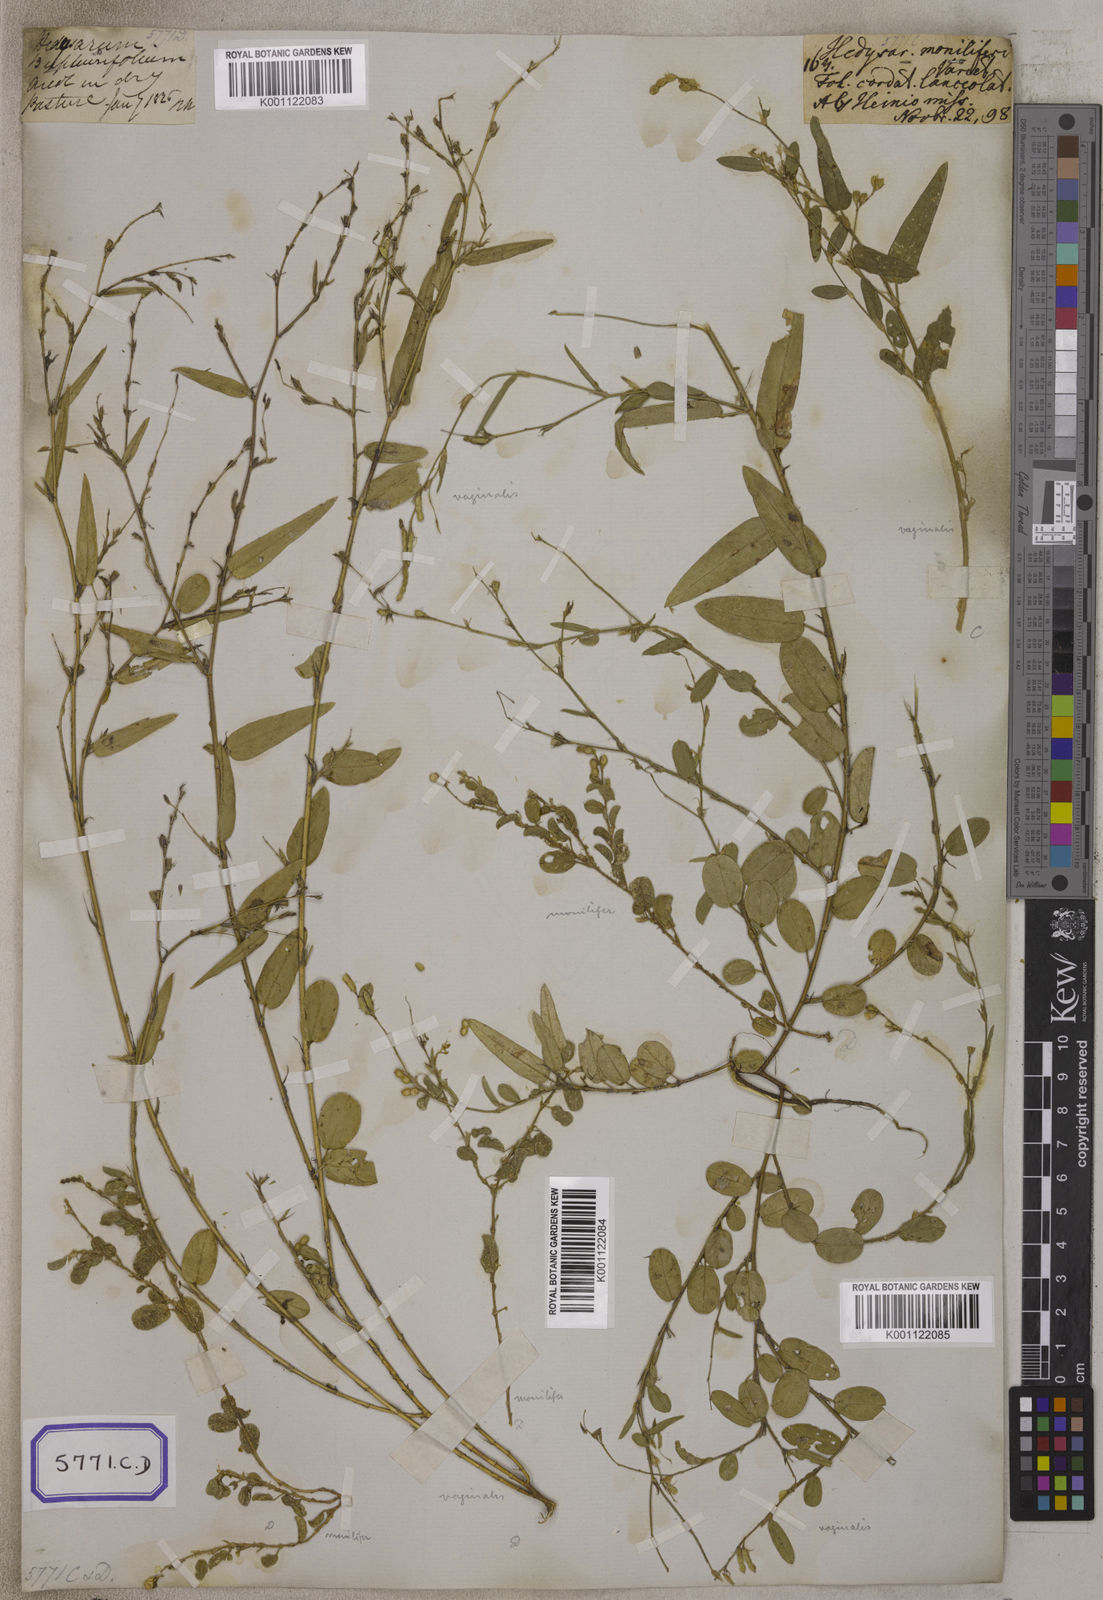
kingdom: Plantae
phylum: Tracheophyta
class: Magnoliopsida
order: Fabales
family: Fabaceae
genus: Alysicarpus
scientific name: Alysicarpus vaginalis
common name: White moneywort
